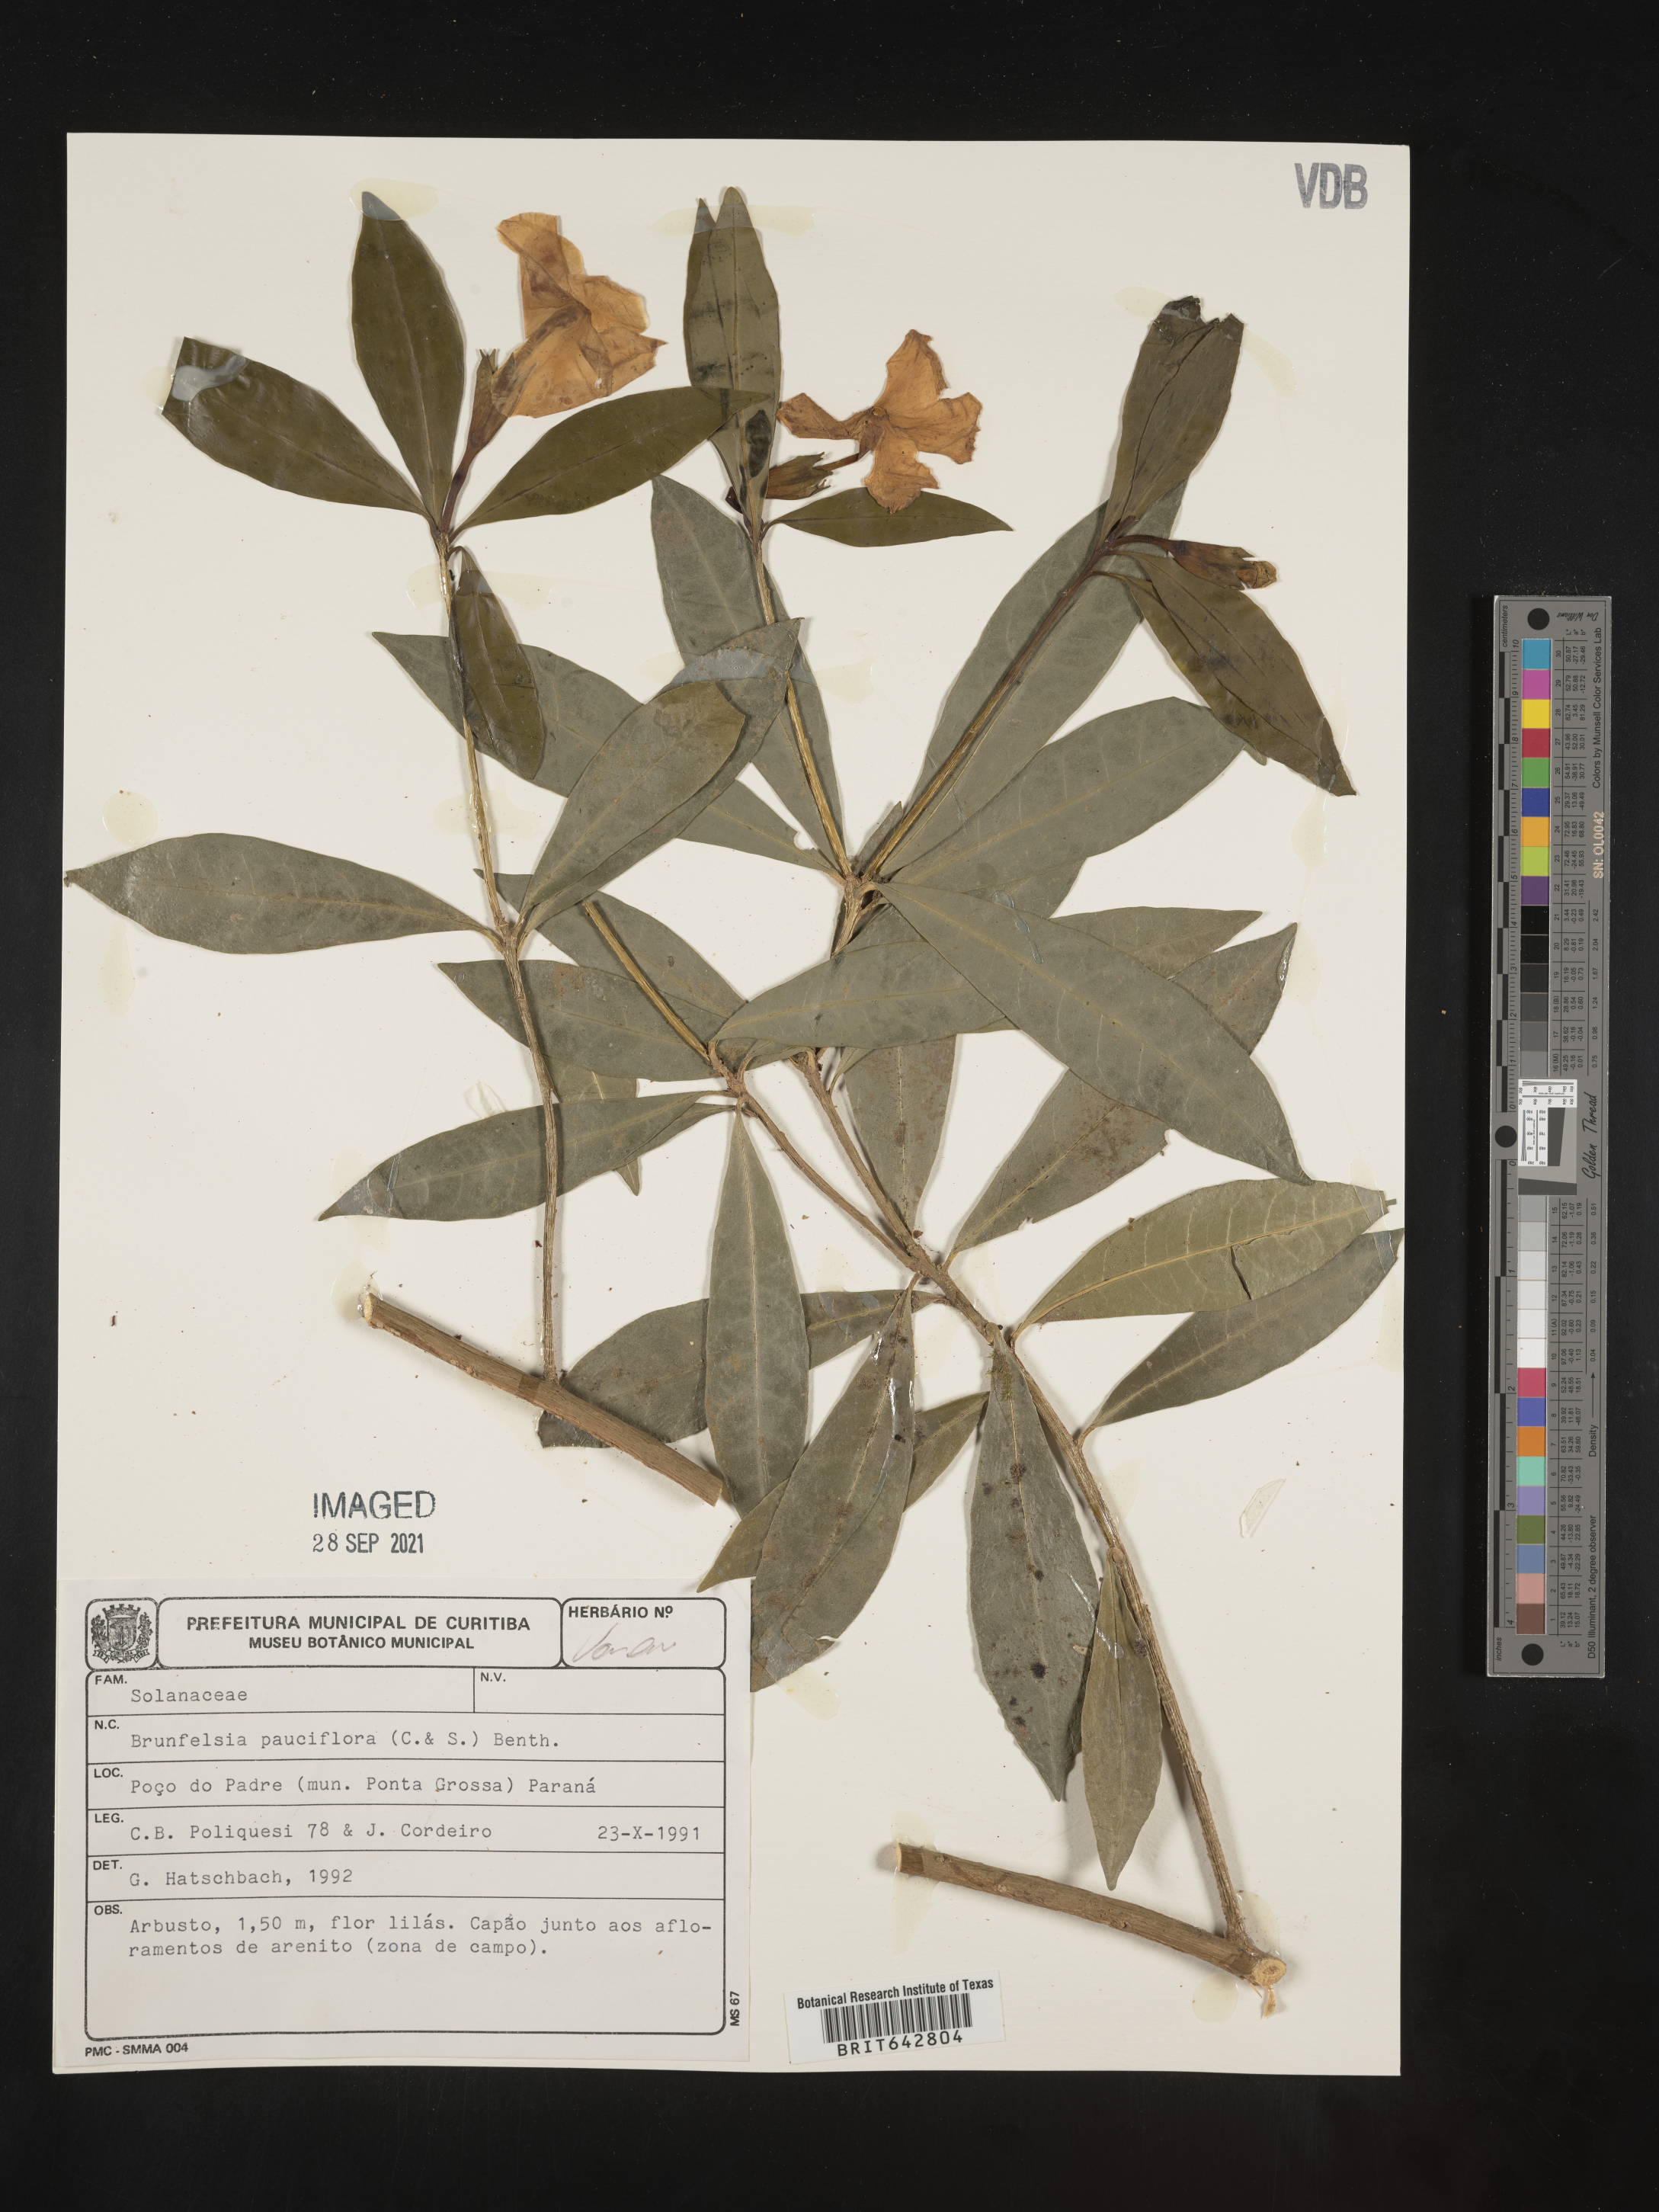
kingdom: Plantae
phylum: Tracheophyta
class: Magnoliopsida
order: Solanales
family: Solanaceae
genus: Brunfelsia
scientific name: Brunfelsia
